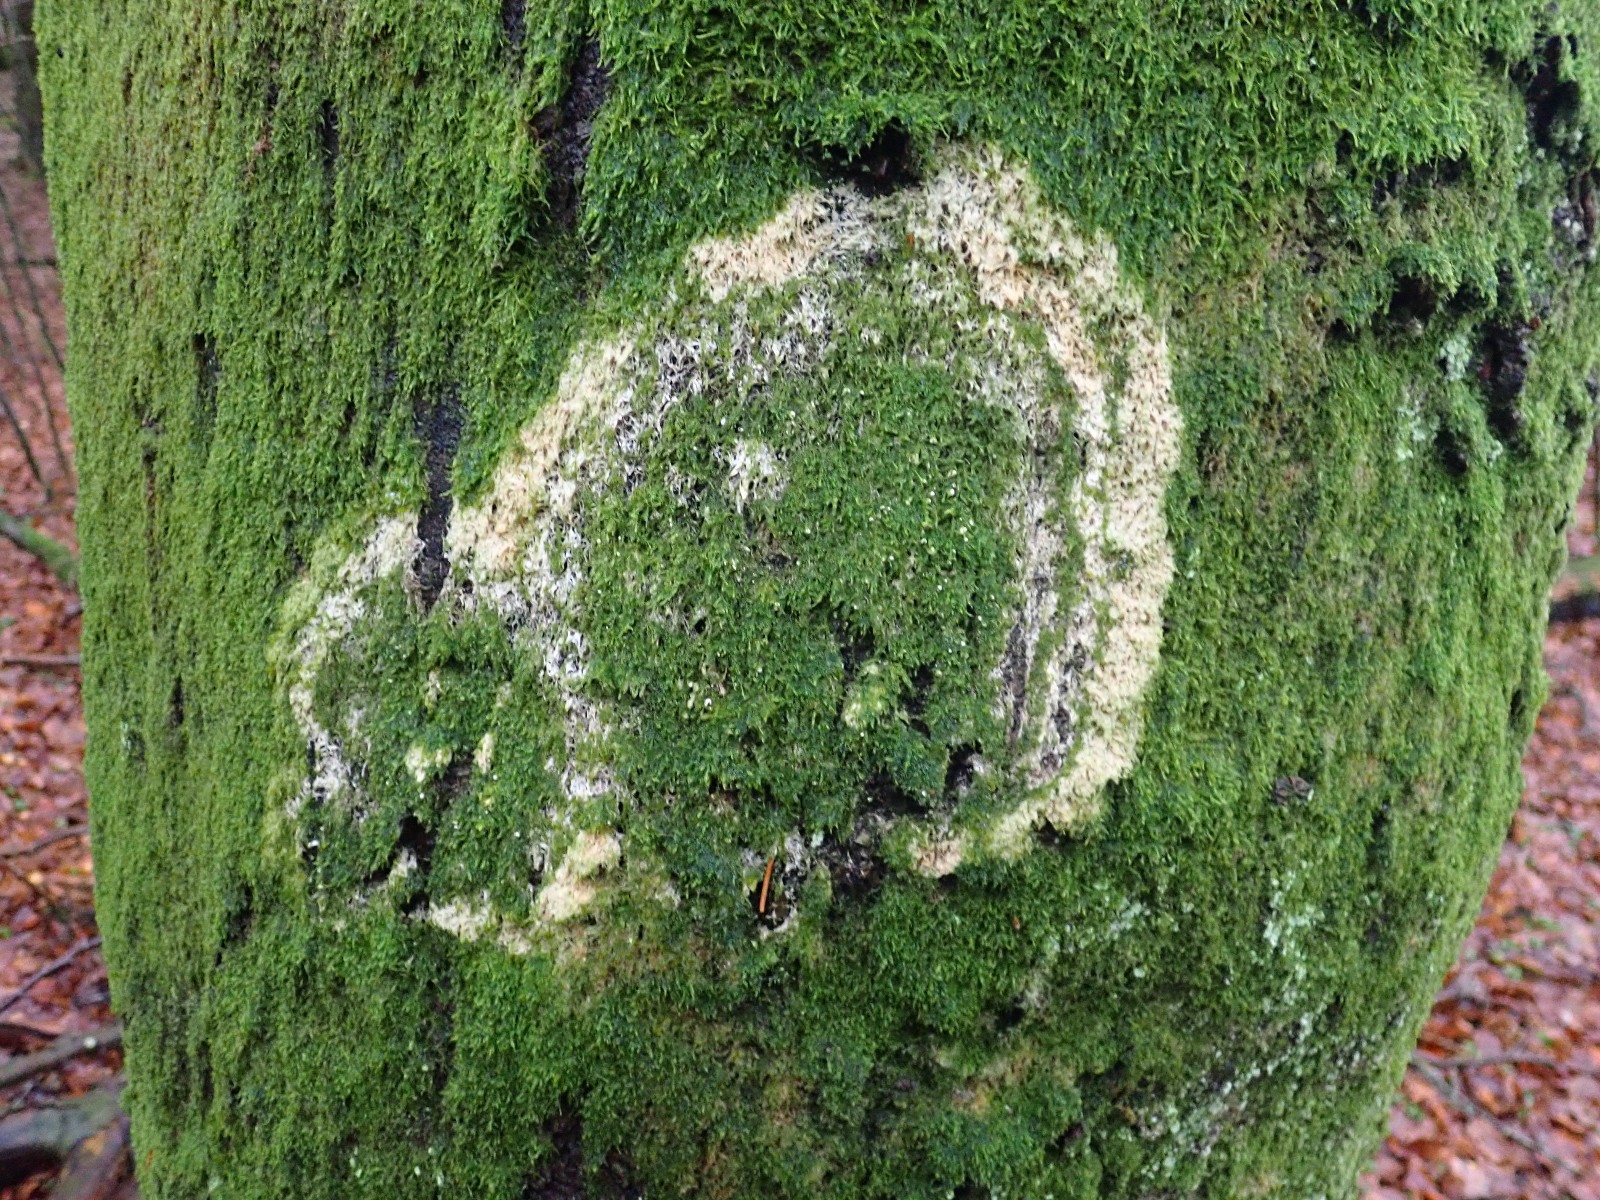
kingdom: Fungi
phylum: Basidiomycota
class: Agaricomycetes
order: Agaricales
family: Chromocyphellaceae
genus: Chromocyphella
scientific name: Chromocyphella muscicola
